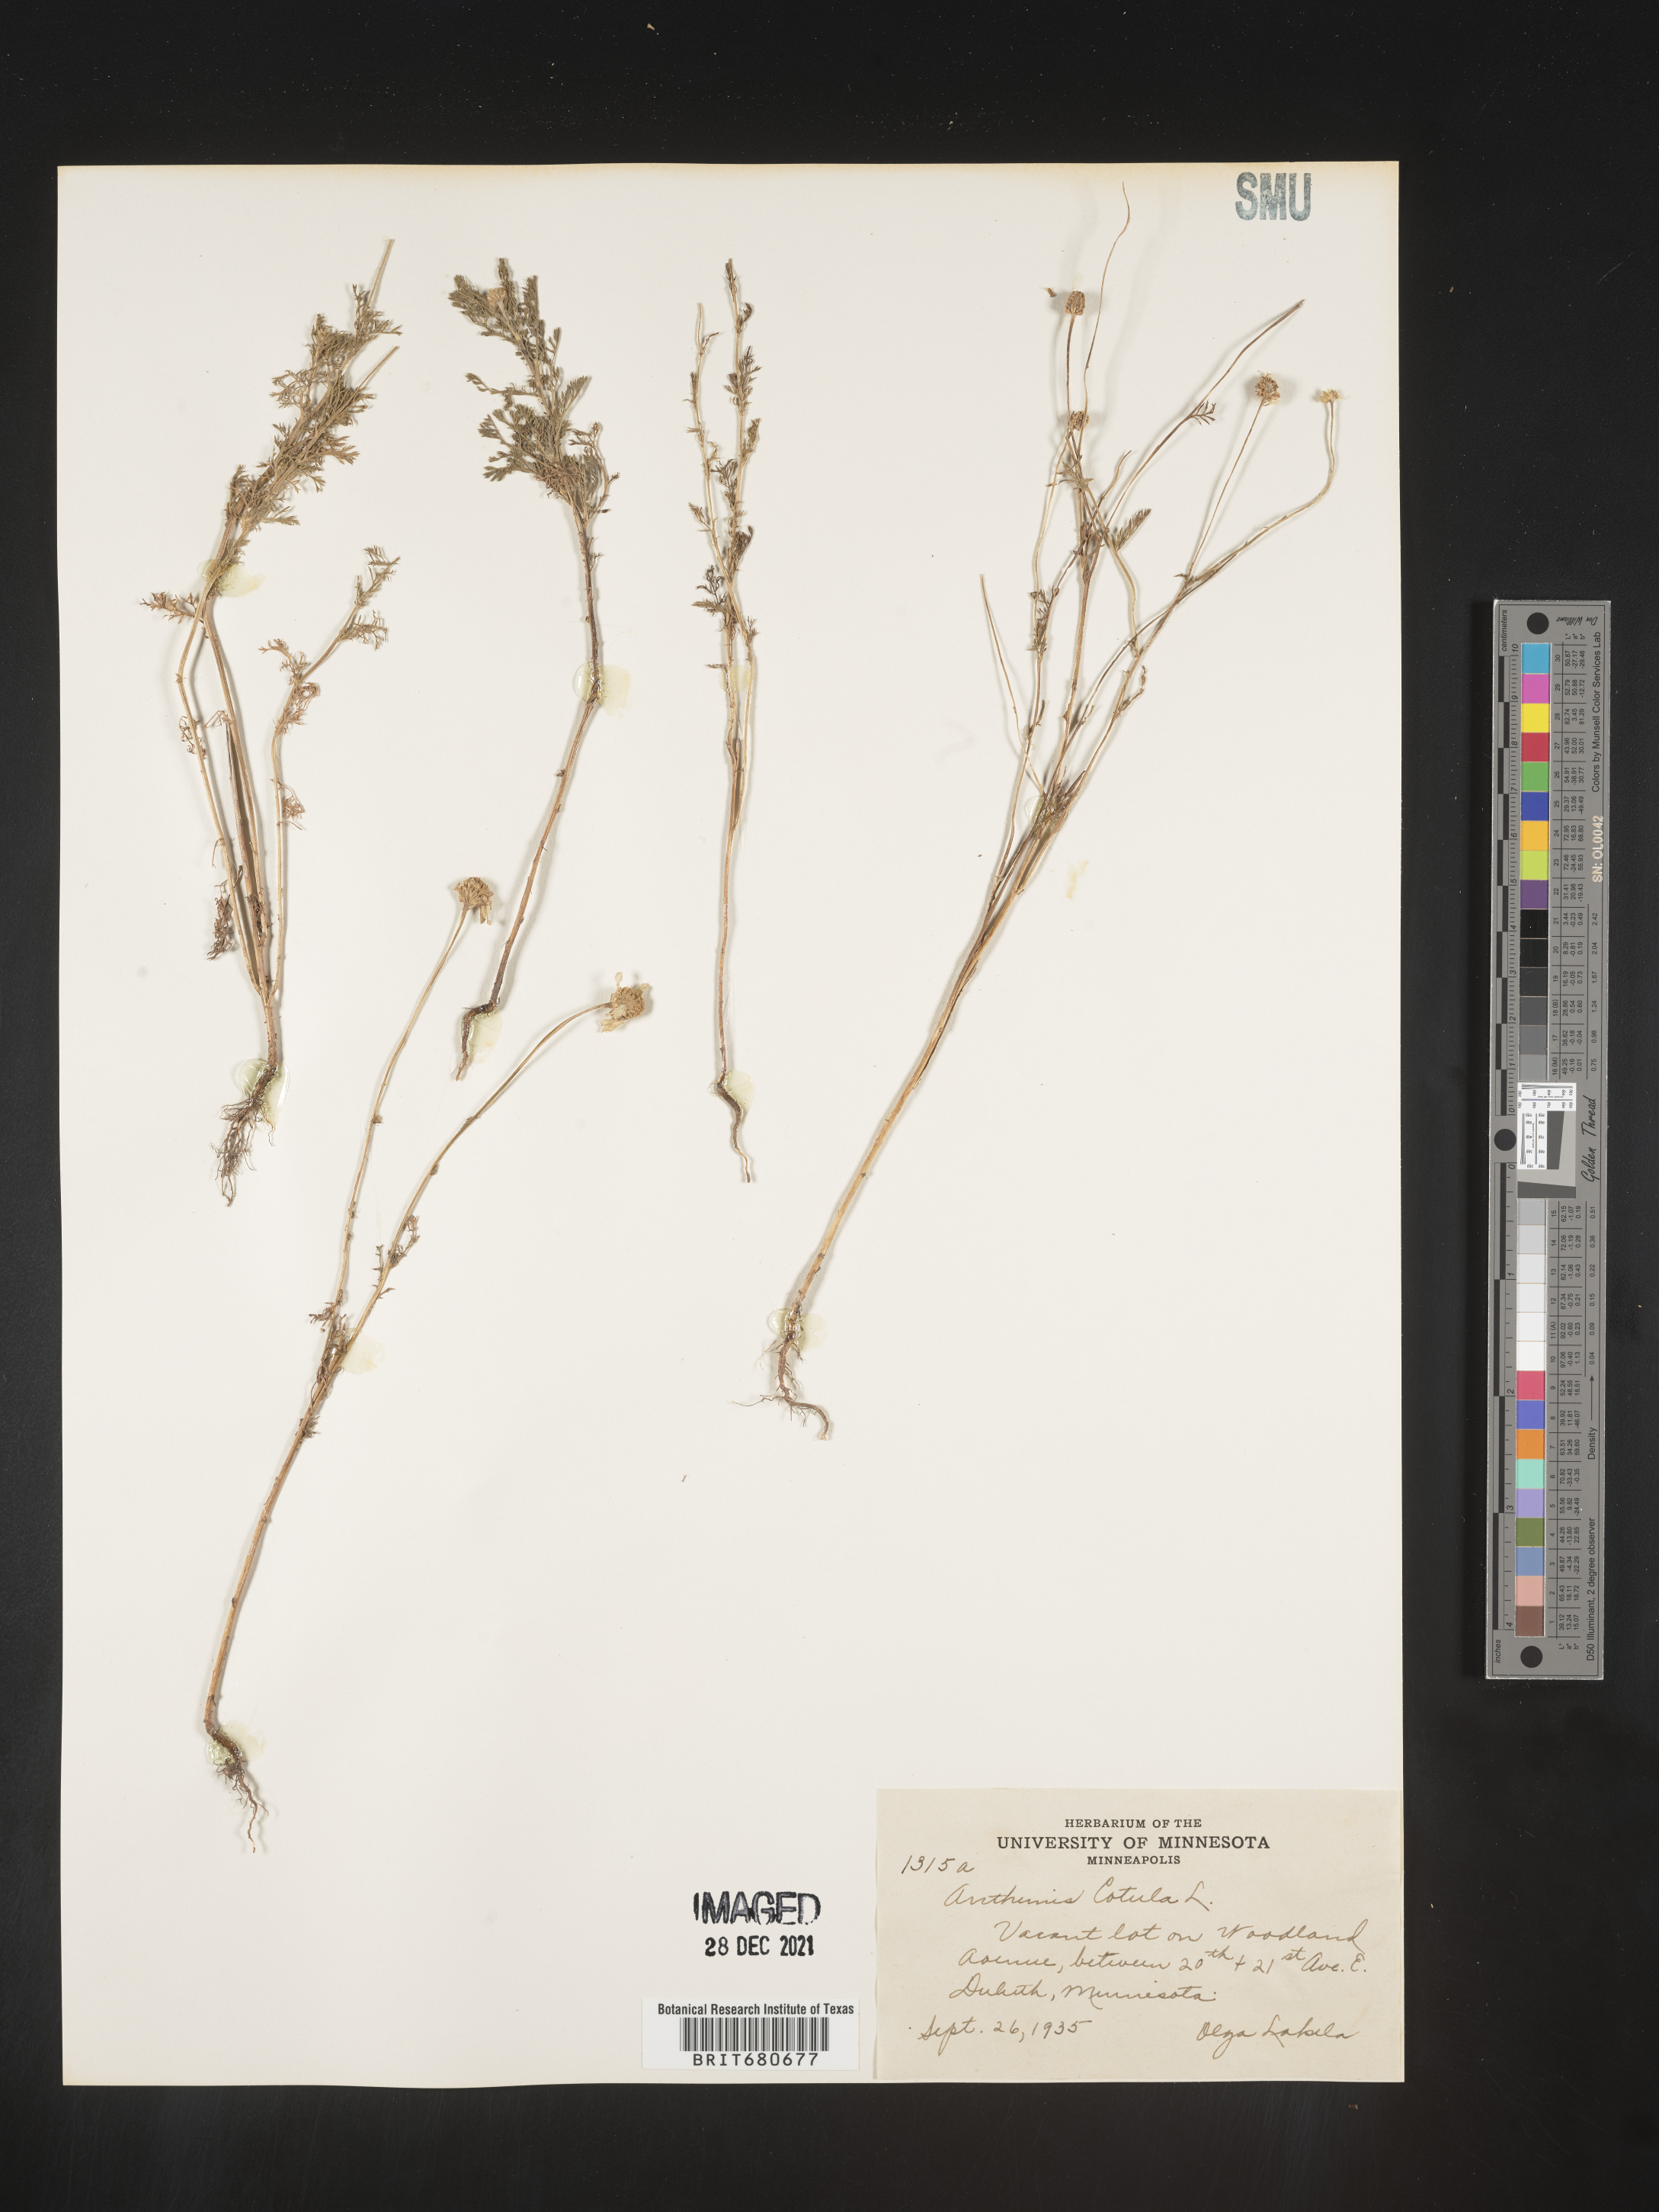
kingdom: Plantae
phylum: Tracheophyta
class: Magnoliopsida
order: Asterales
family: Asteraceae
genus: Anthemis
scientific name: Anthemis cotula
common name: Stinking chamomile
